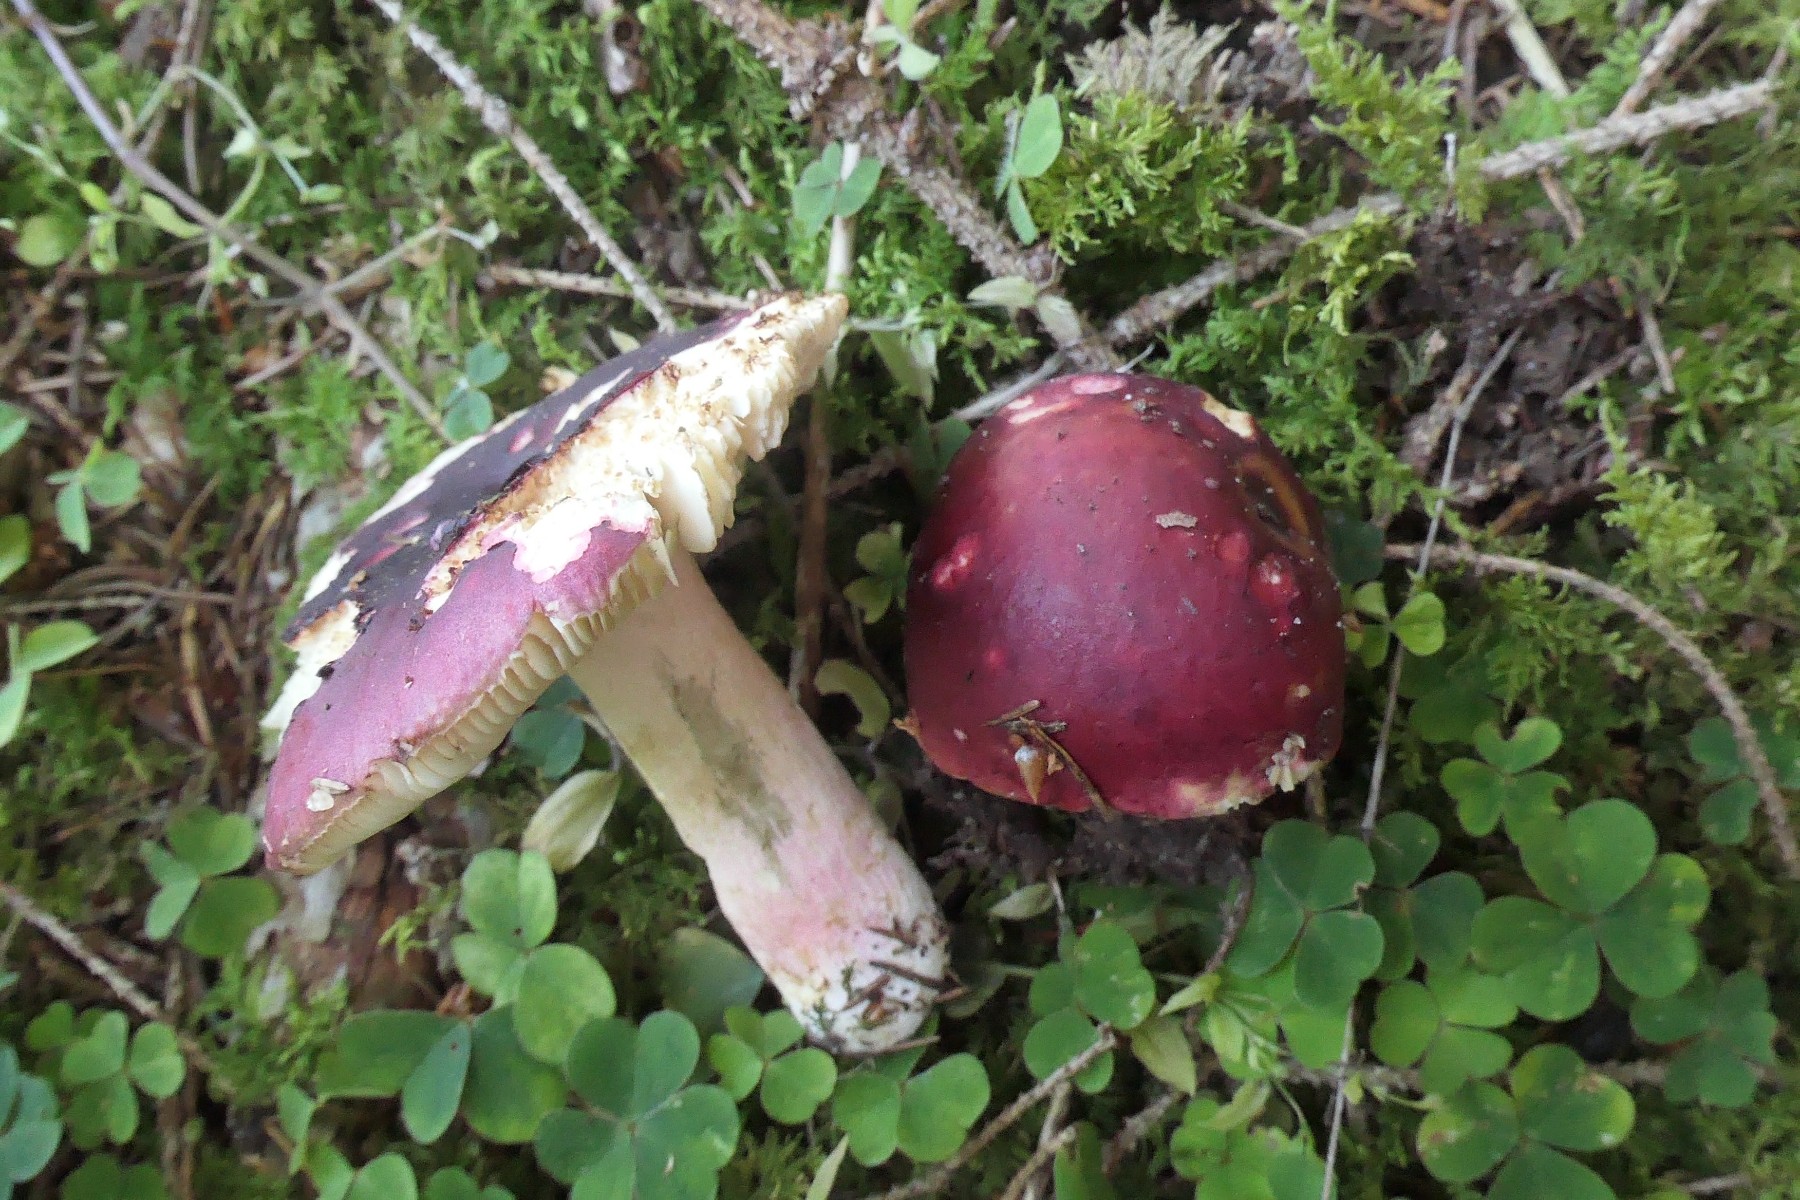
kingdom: Fungi
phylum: Basidiomycota
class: Agaricomycetes
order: Russulales
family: Russulaceae
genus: Russula
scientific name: Russula xerampelina
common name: hummer-skørhat
